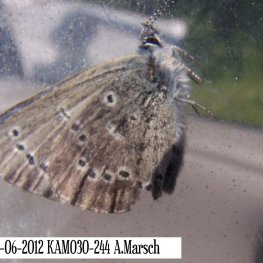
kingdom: Animalia
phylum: Arthropoda
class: Insecta
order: Lepidoptera
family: Lycaenidae
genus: Glaucopsyche
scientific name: Glaucopsyche lygdamus
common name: Silvery Blue
